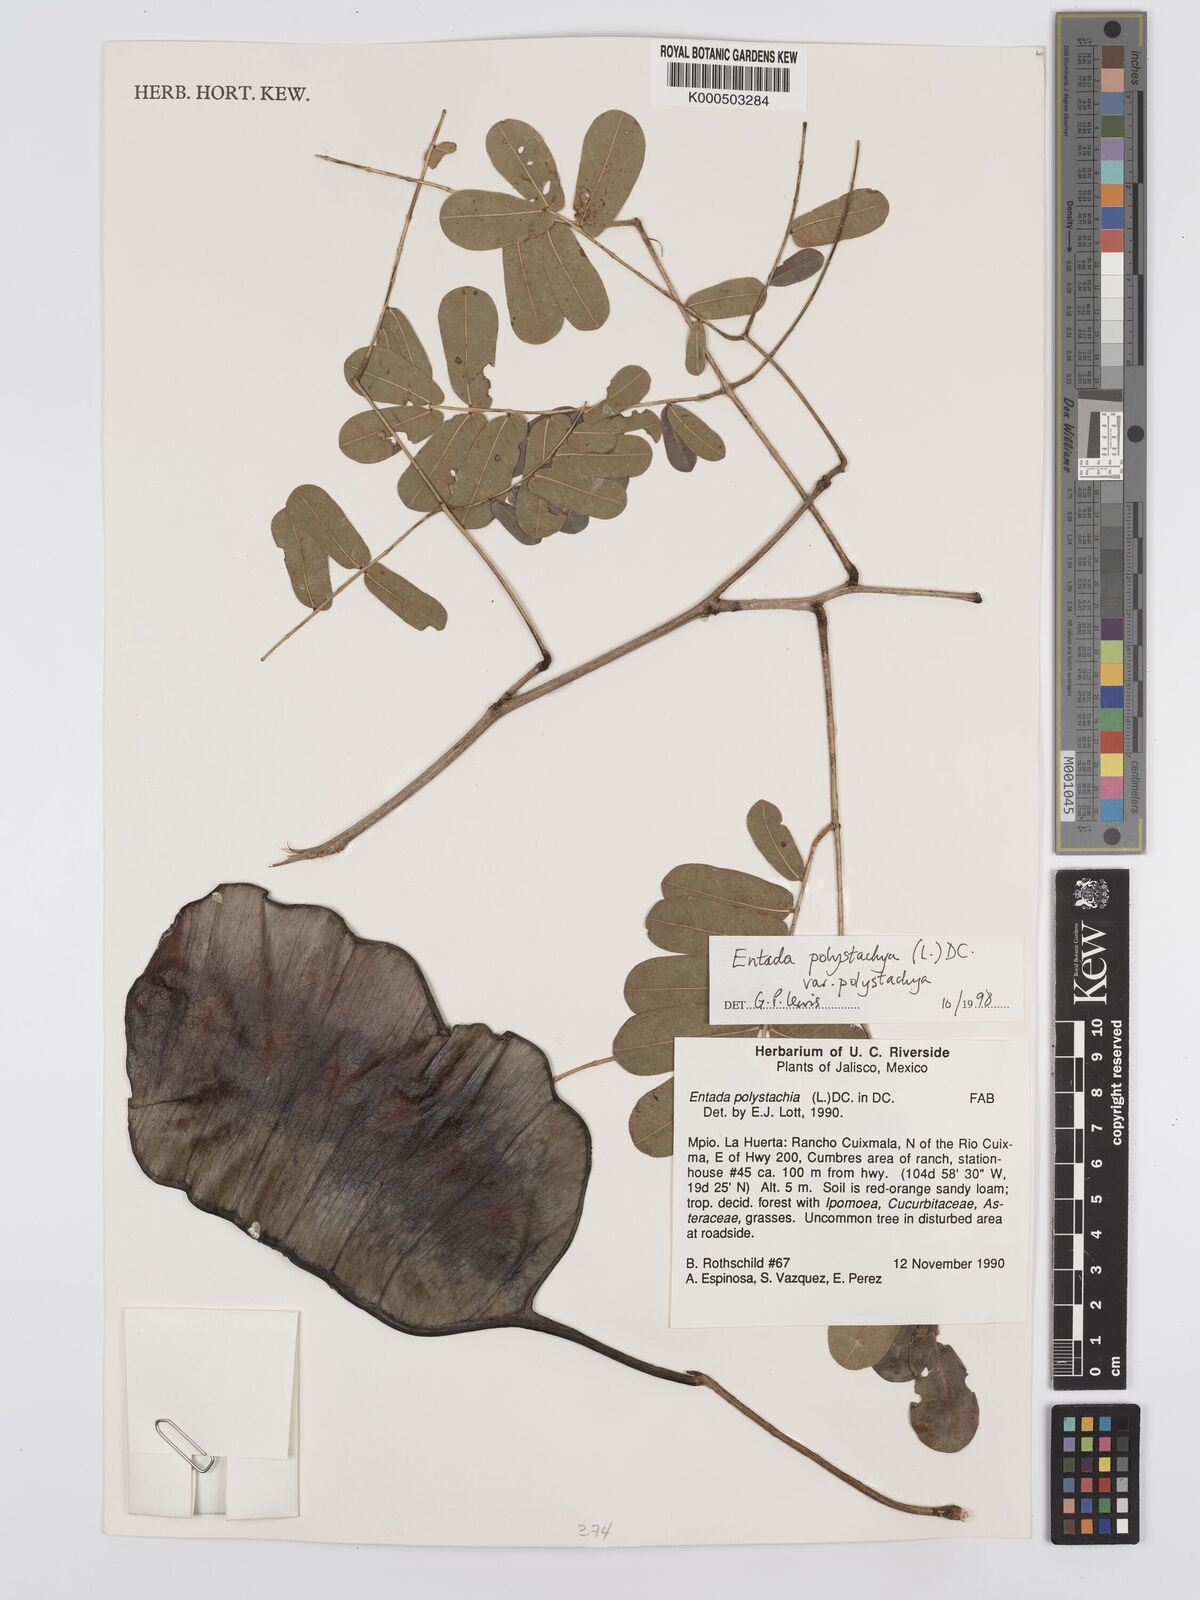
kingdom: Plantae
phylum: Tracheophyta
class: Magnoliopsida
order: Fabales
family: Fabaceae
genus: Entada
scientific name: Entada polystachya
